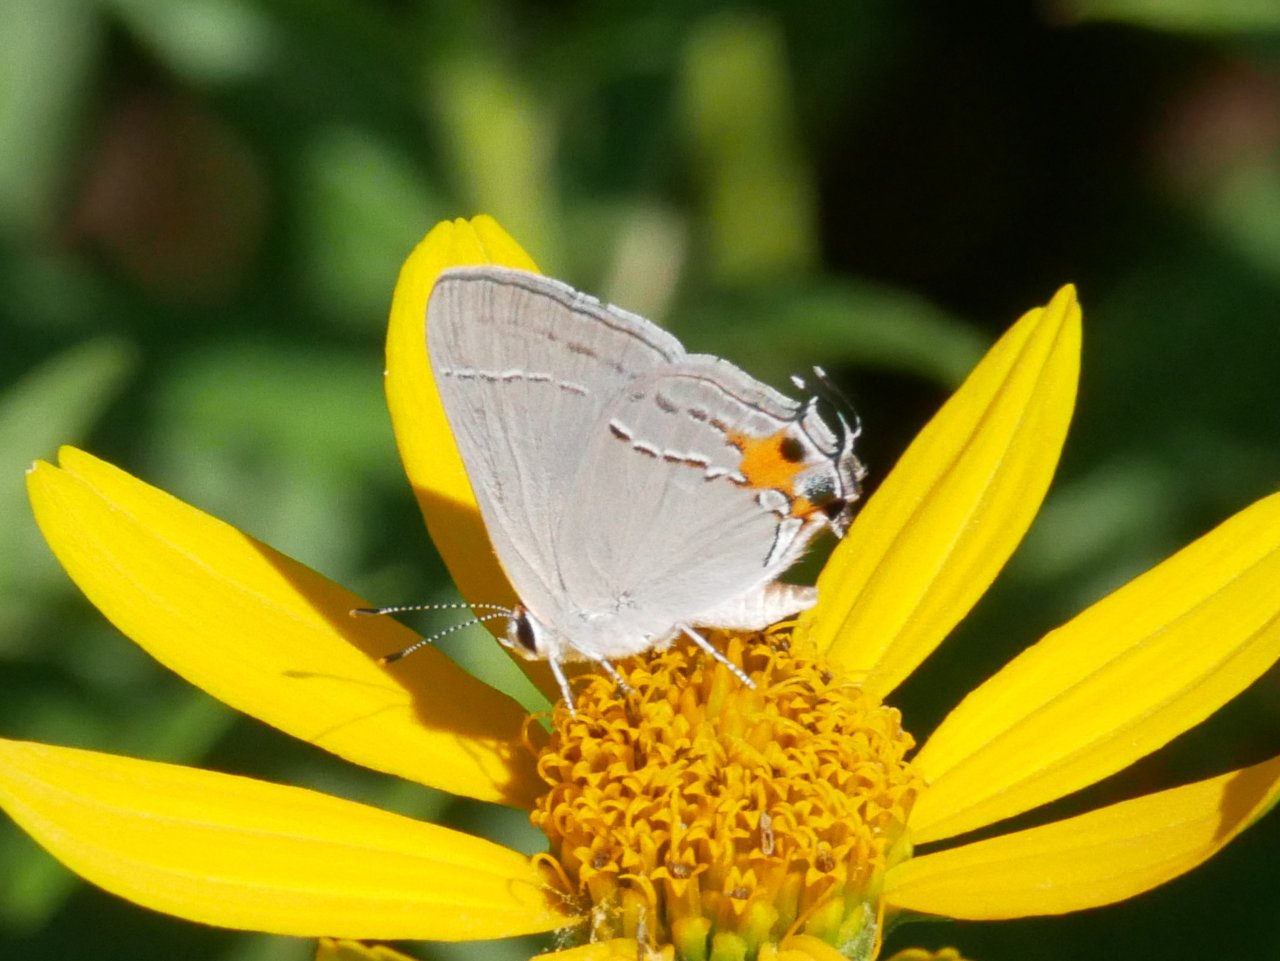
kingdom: Animalia
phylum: Arthropoda
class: Insecta
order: Lepidoptera
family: Lycaenidae
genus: Strymon
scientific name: Strymon melinus
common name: Gray Hairstreak
